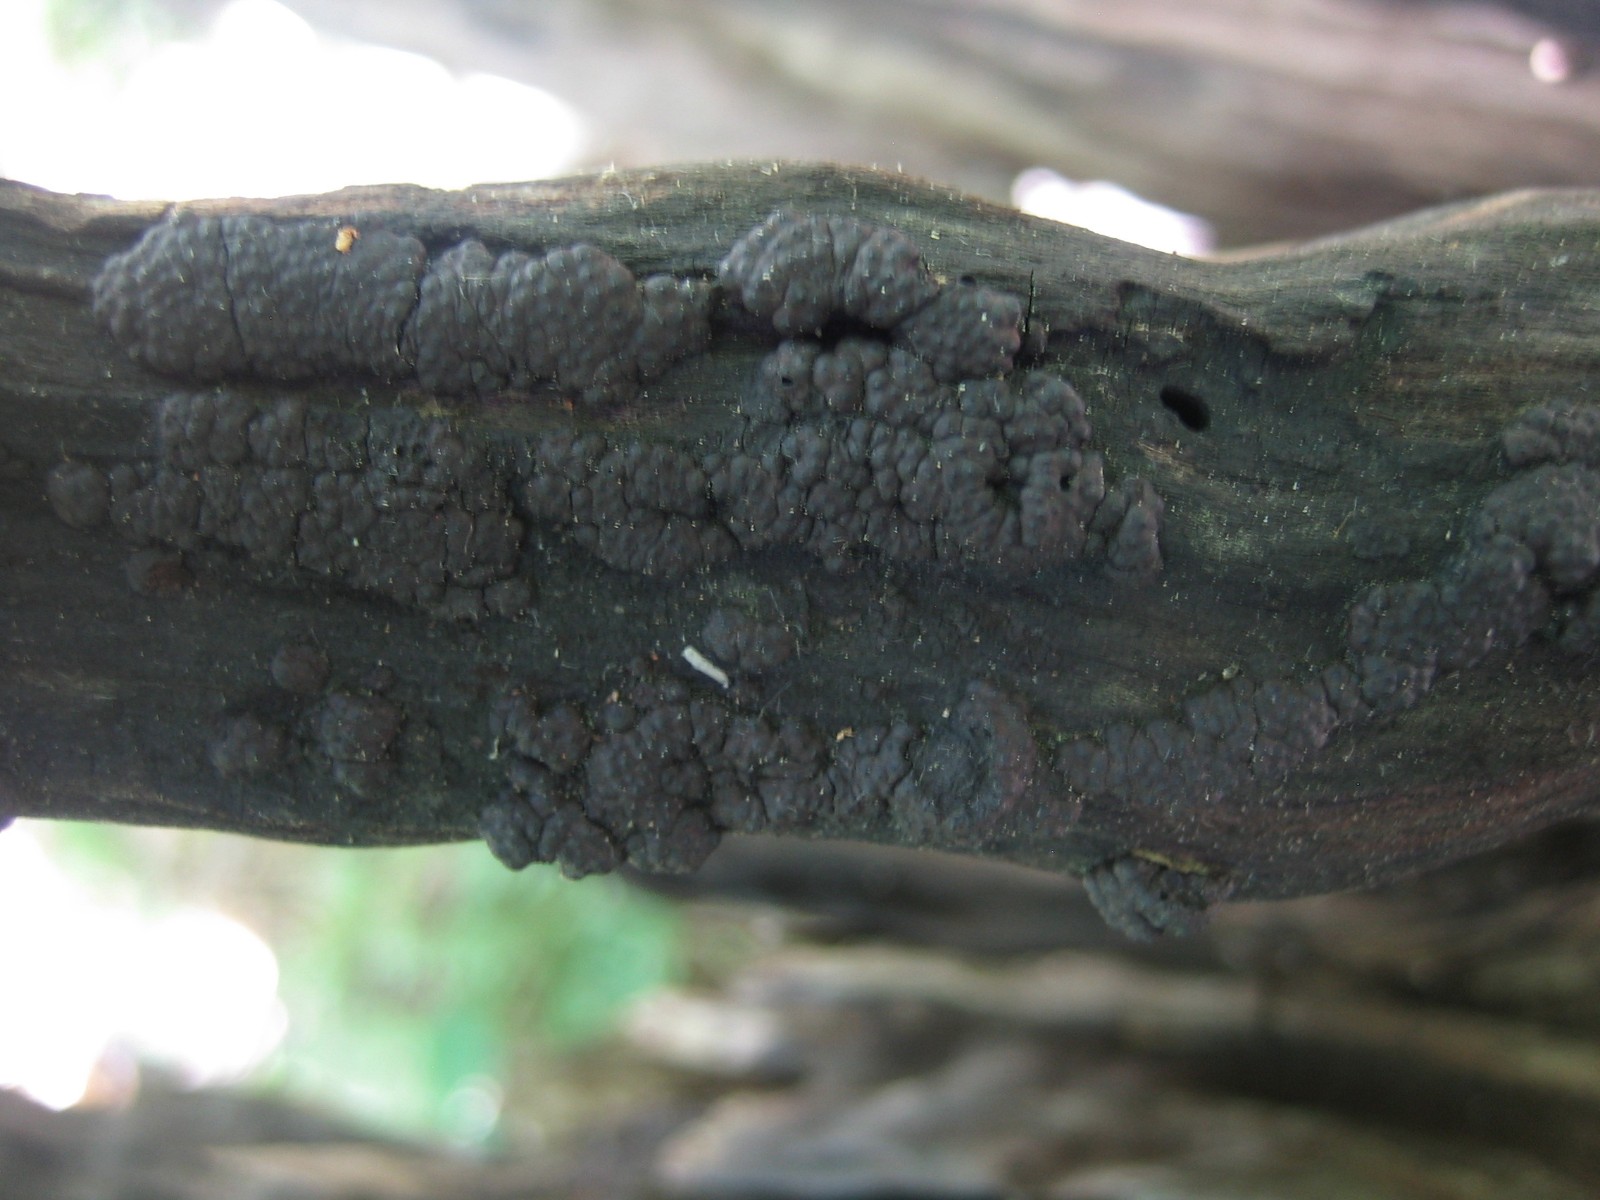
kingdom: Fungi
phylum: Ascomycota
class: Sordariomycetes
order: Xylariales
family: Hypoxylaceae
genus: Jackrogersella
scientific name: Jackrogersella multiformis
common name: foranderlig kulbær
